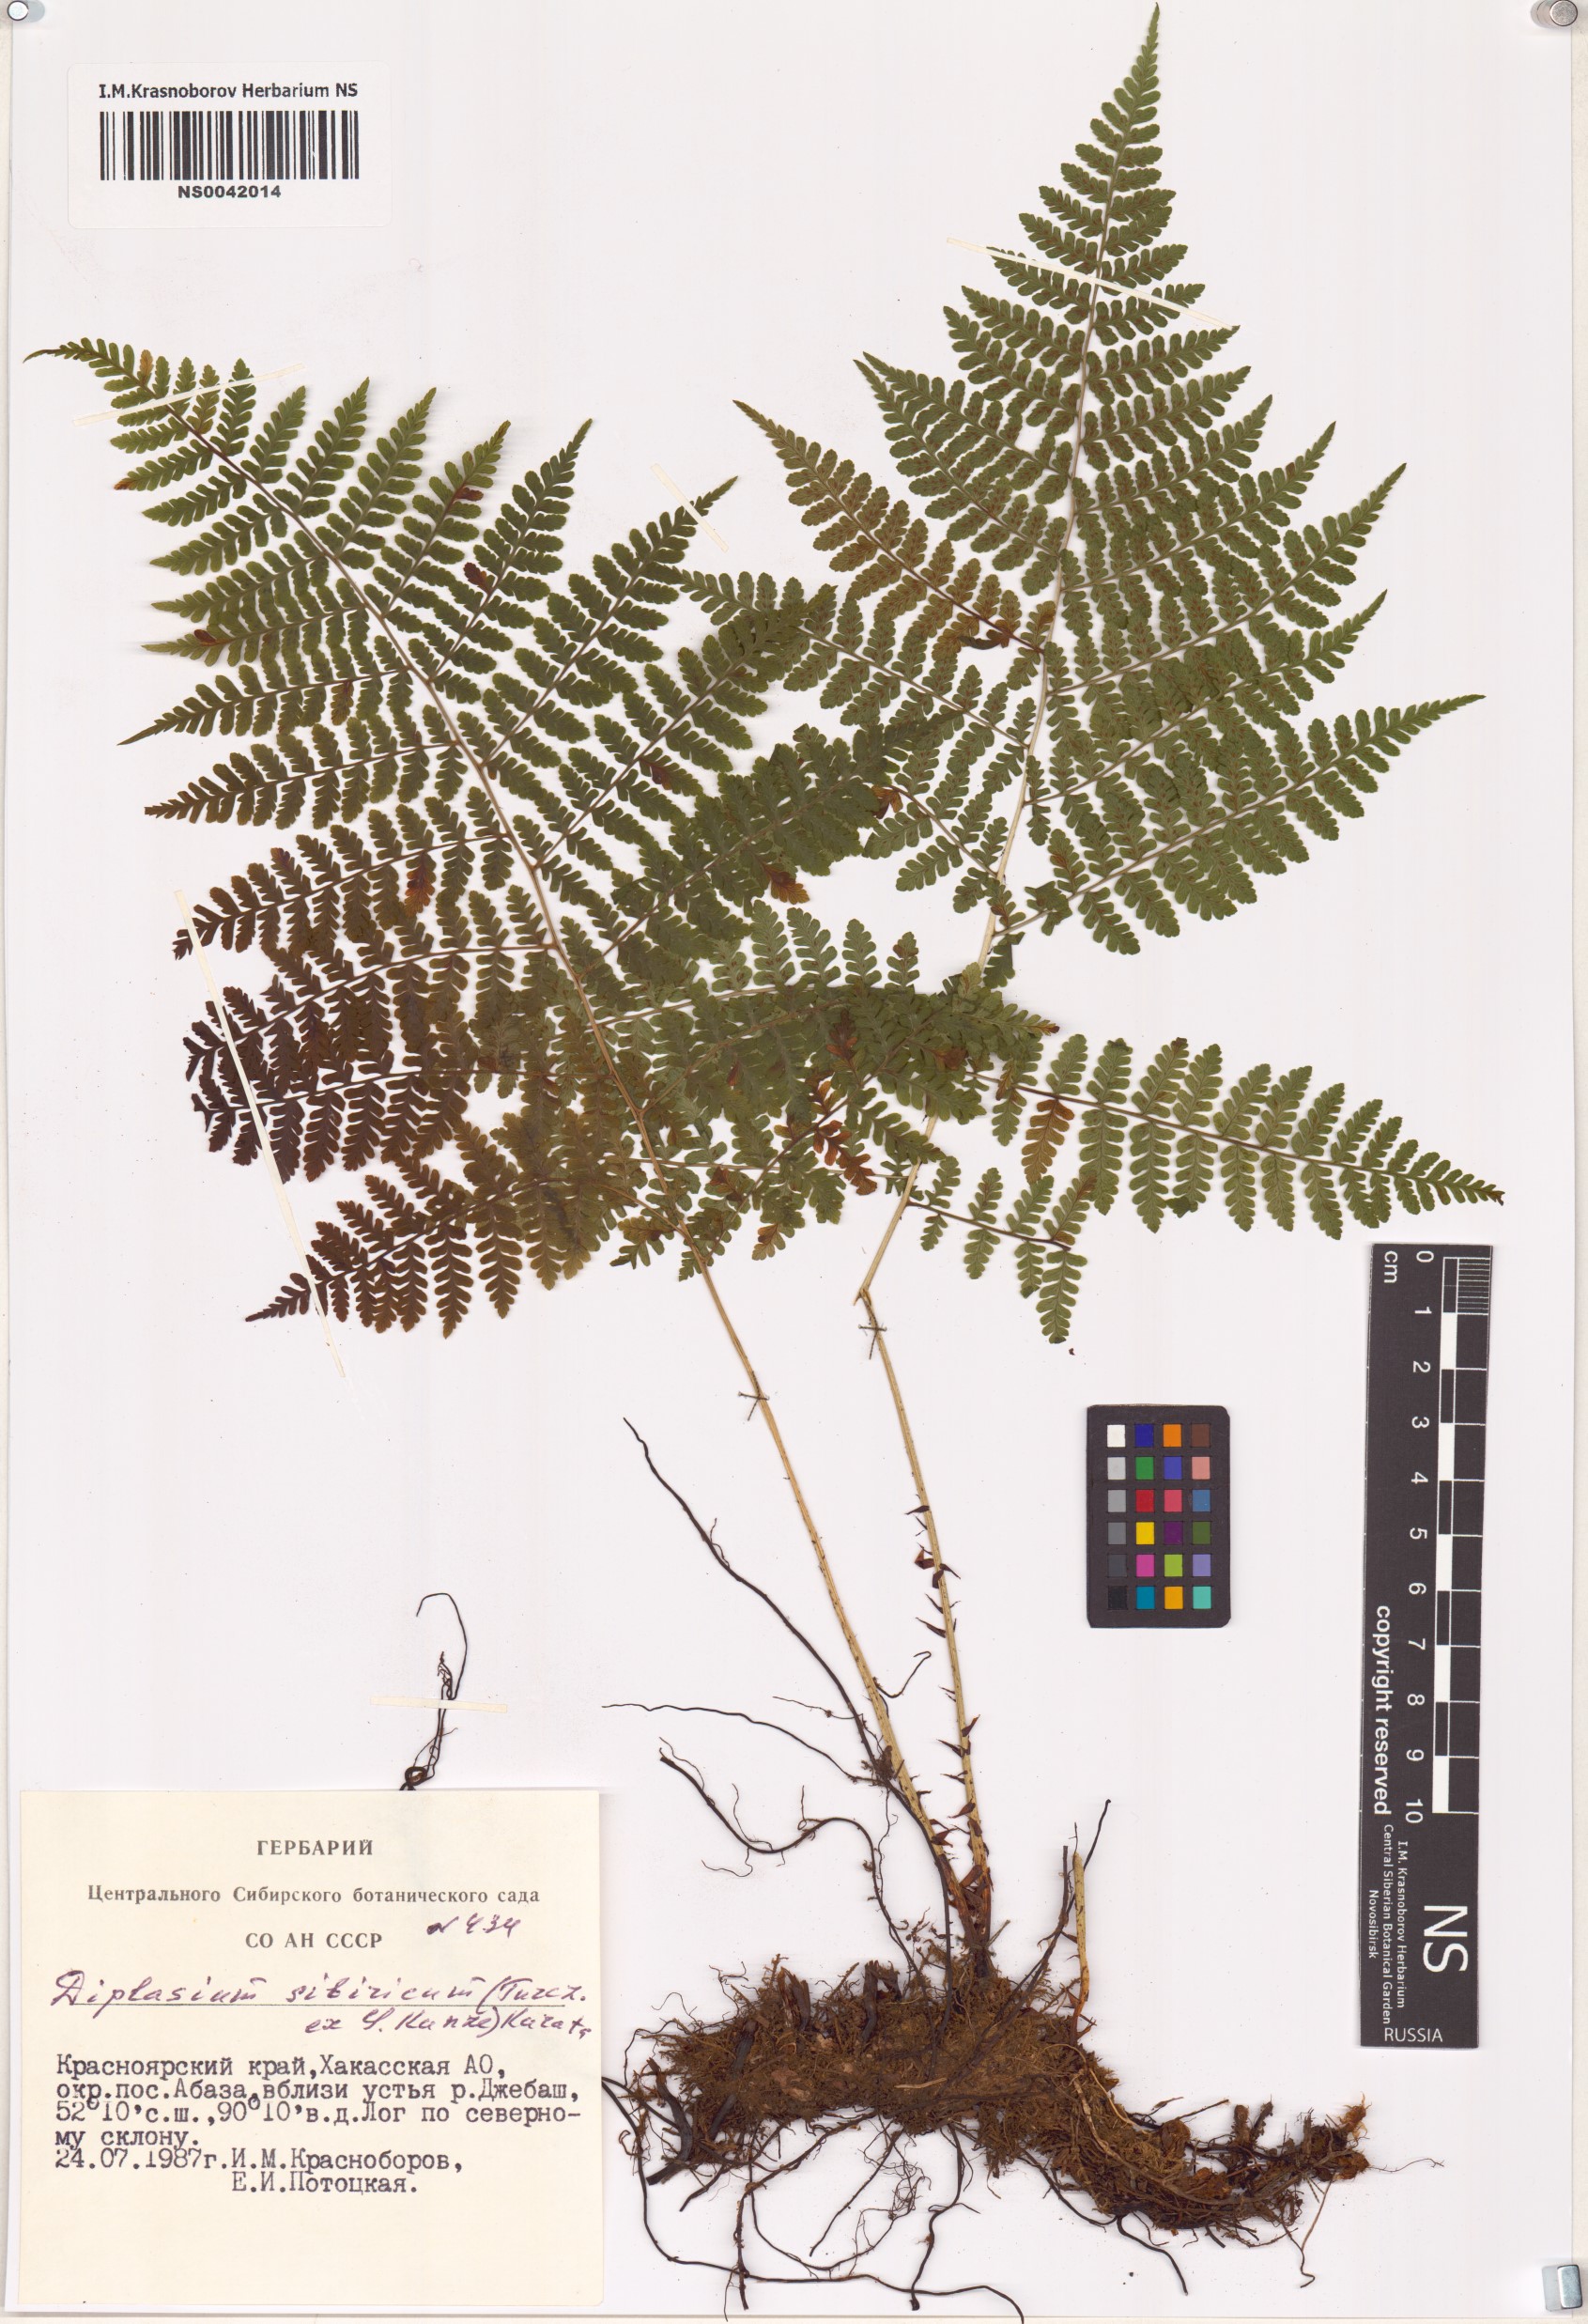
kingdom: Plantae
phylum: Tracheophyta
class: Polypodiopsida
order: Polypodiales
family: Athyriaceae
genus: Diplazium
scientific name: Diplazium sibiricum
